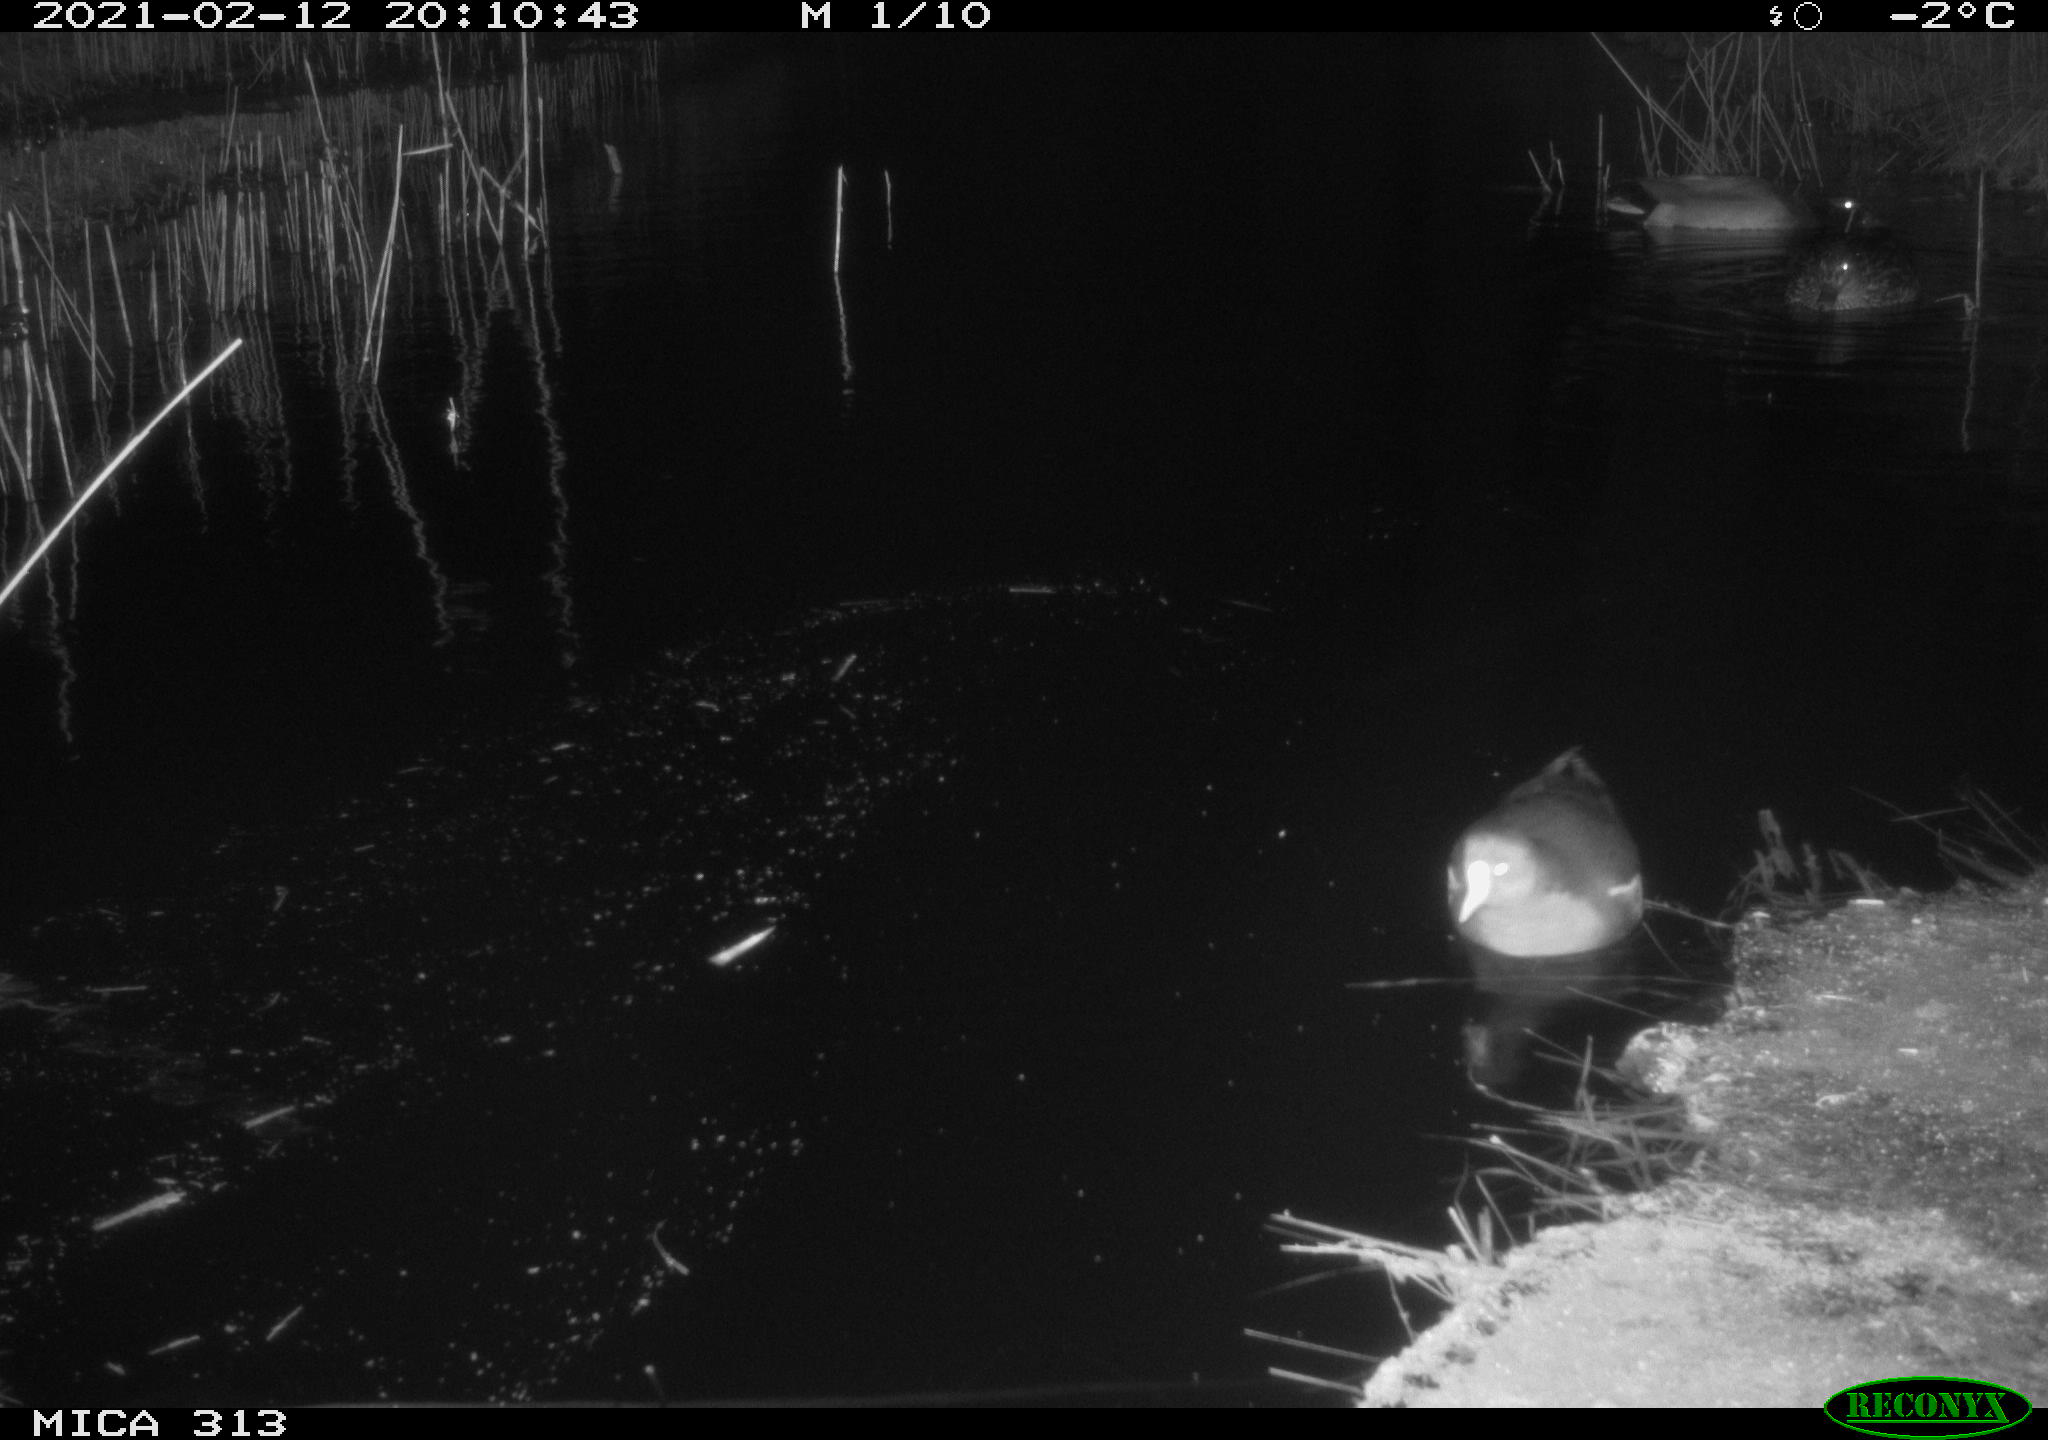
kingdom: Animalia
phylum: Chordata
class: Aves
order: Anseriformes
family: Anatidae
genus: Anas
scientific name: Anas
